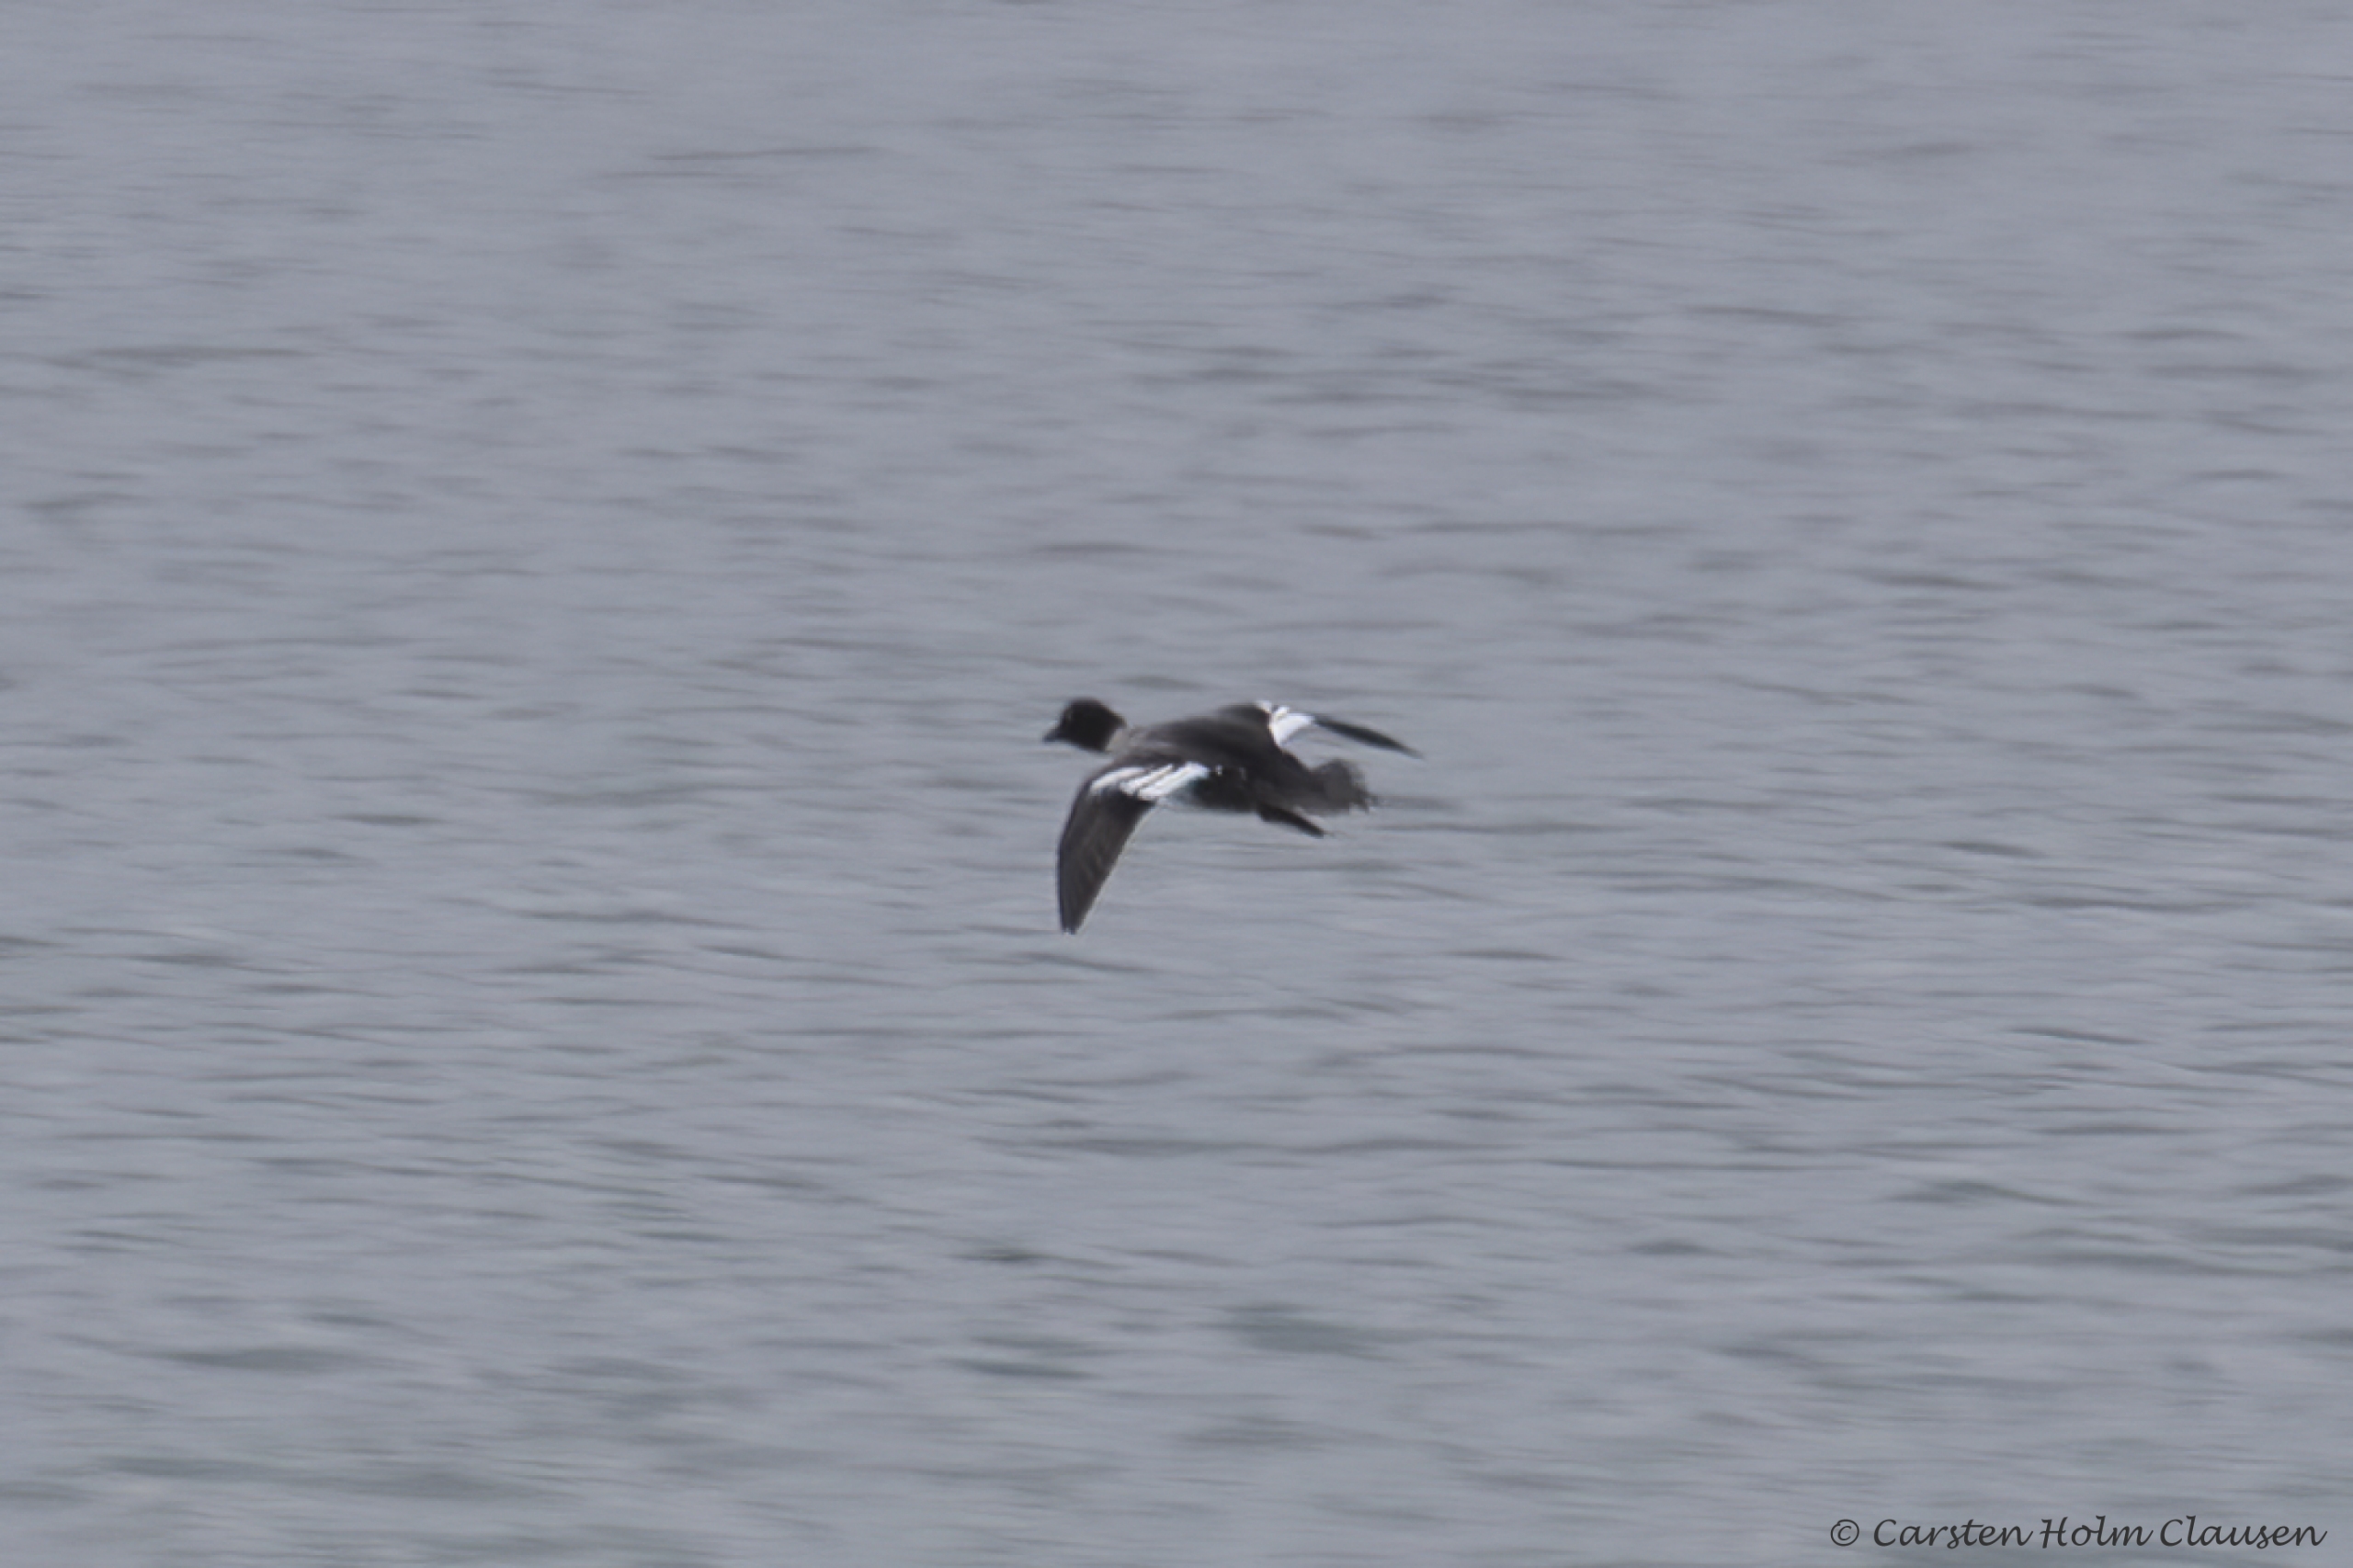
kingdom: Animalia
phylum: Chordata
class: Aves
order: Anseriformes
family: Anatidae
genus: Bucephala
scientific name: Bucephala clangula
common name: Hvinand
